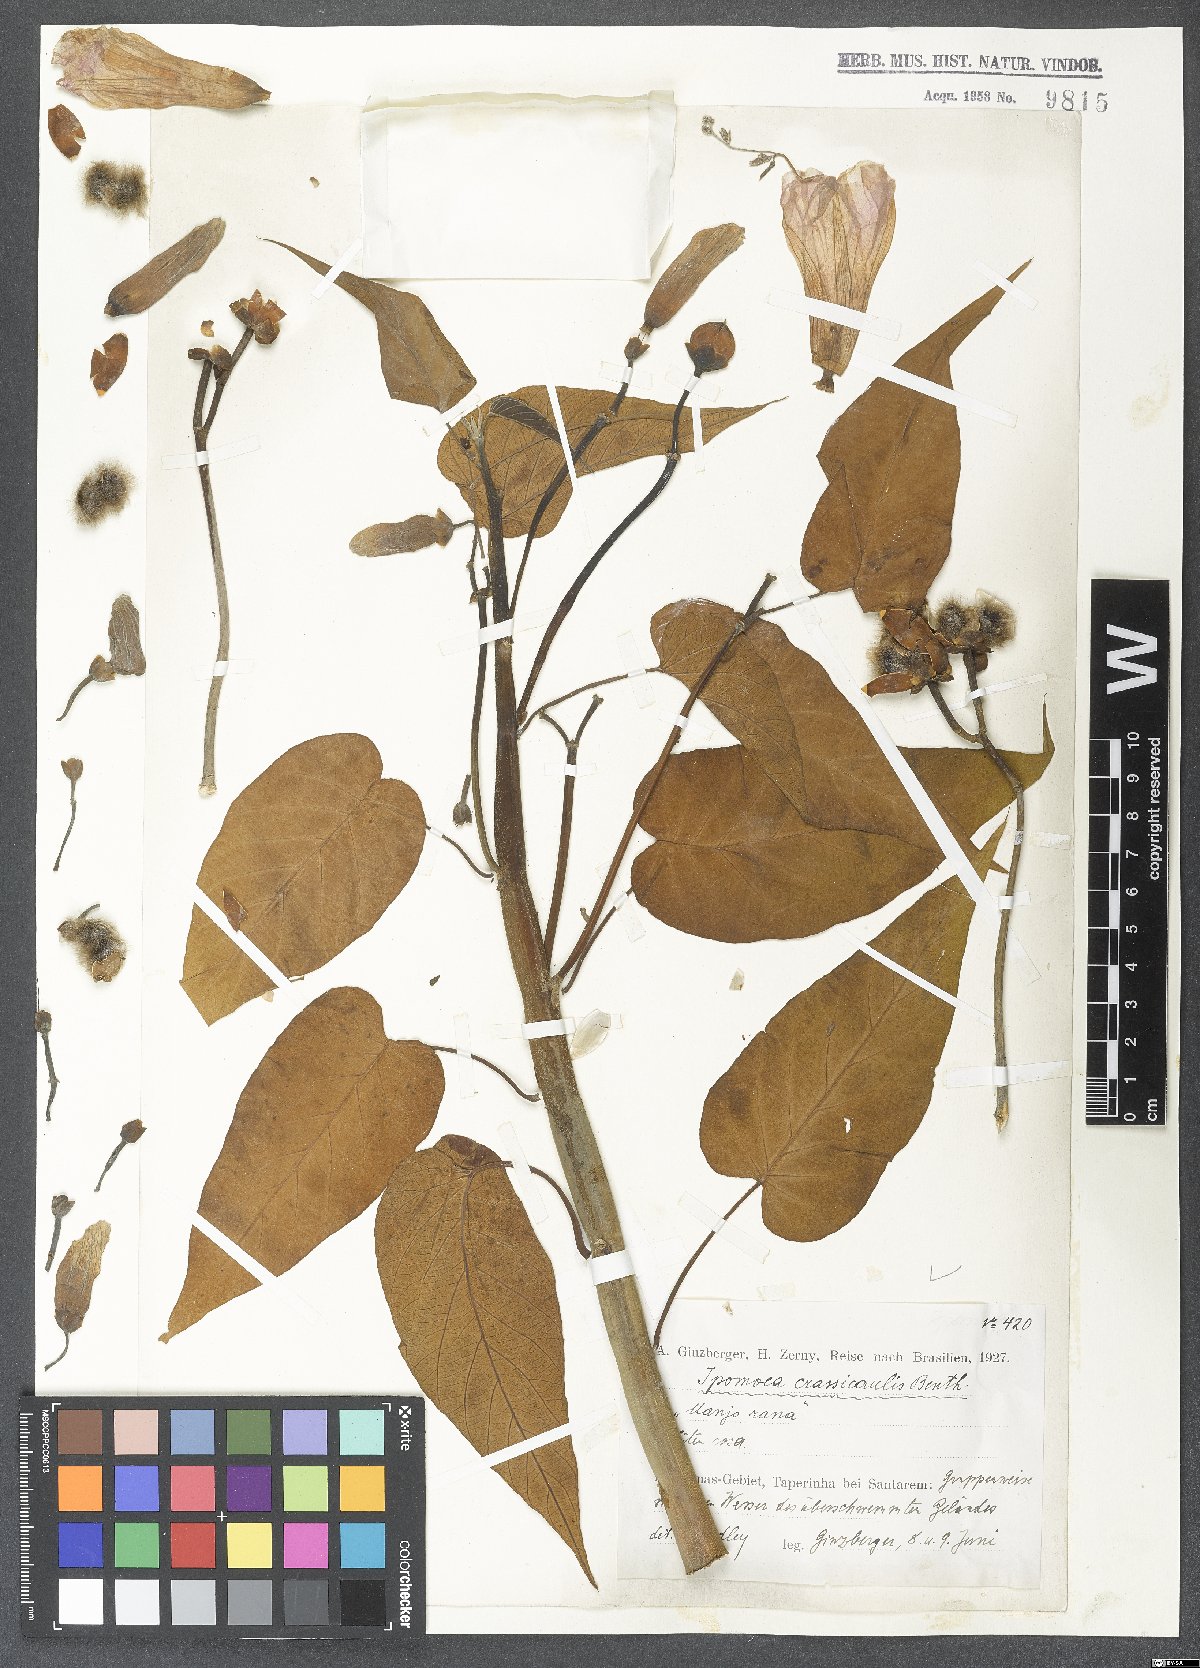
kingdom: Plantae
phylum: Tracheophyta
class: Magnoliopsida
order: Solanales
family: Convolvulaceae
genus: Ipomoea
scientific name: Ipomoea carnea
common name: Morning-glory
